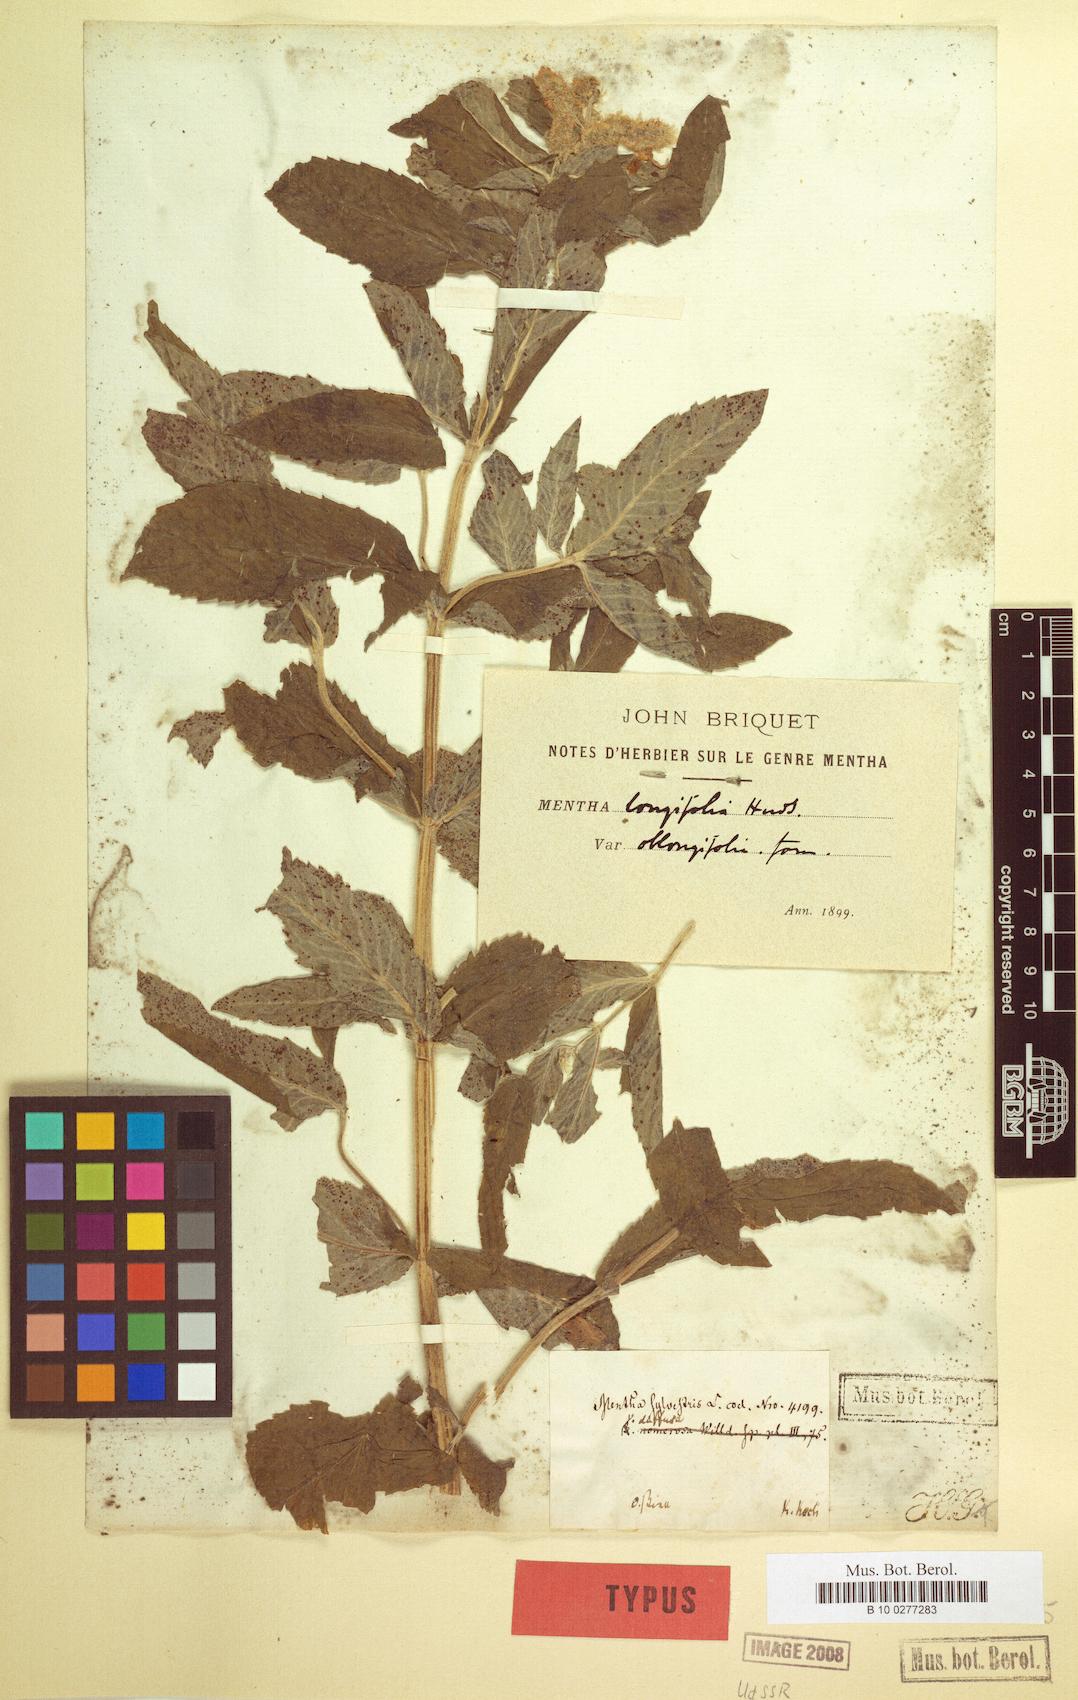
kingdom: Plantae
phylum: Tracheophyta
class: Magnoliopsida
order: Lamiales
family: Lamiaceae
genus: Mentha
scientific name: Mentha longifolia
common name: Horse mint
